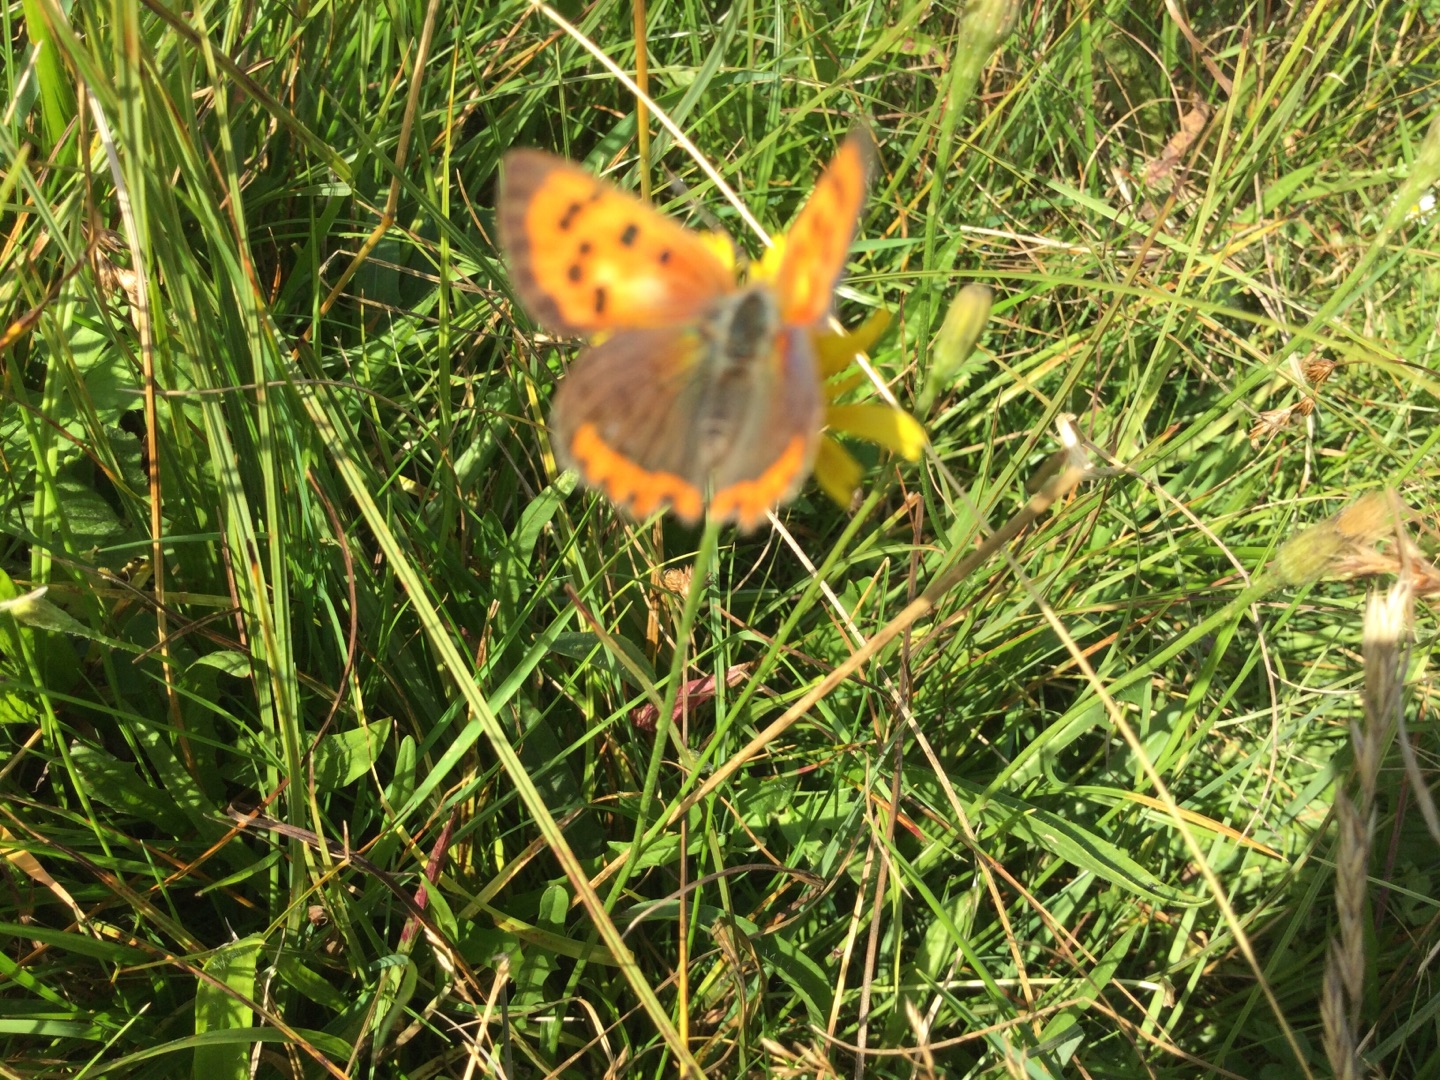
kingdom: Animalia
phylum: Arthropoda
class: Insecta
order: Lepidoptera
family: Lycaenidae
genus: Lycaena
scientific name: Lycaena phlaeas
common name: Lille ildfugl
